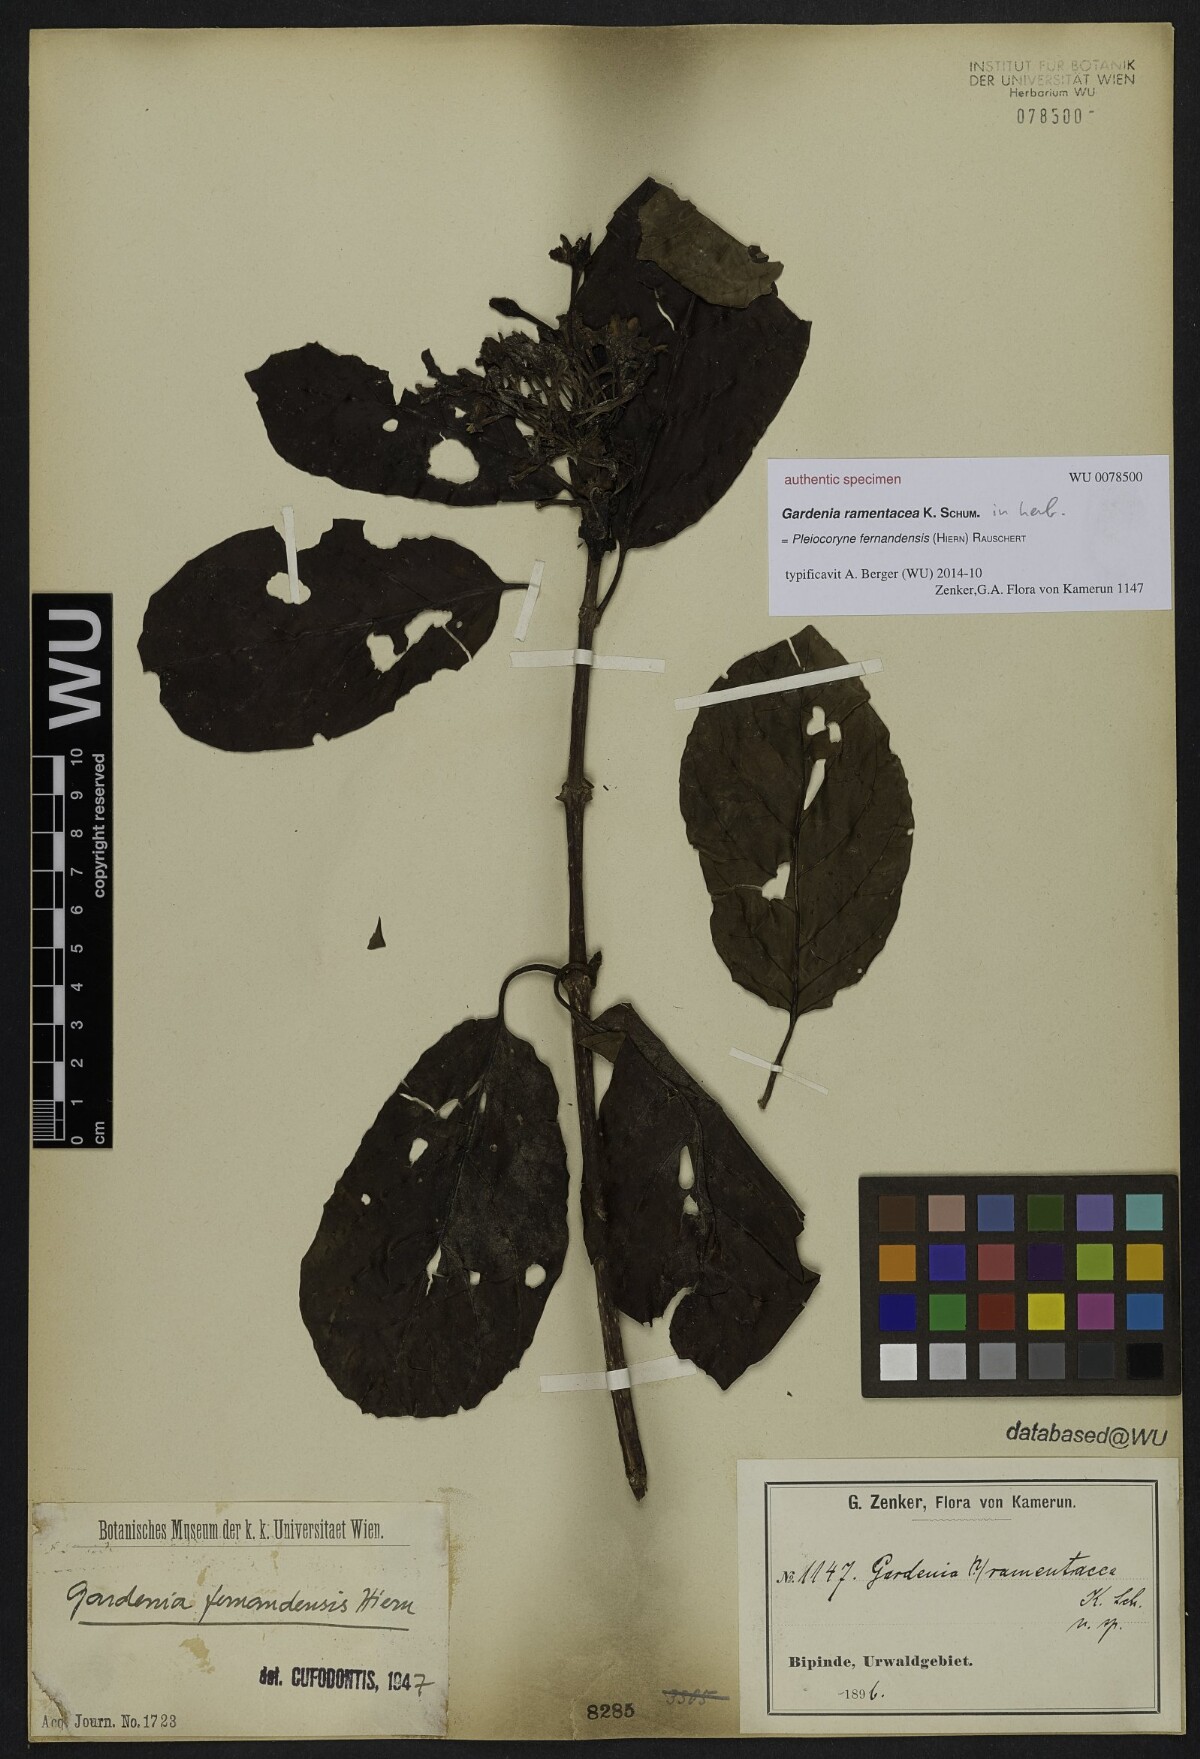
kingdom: Plantae
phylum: Tracheophyta
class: Magnoliopsida
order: Gentianales
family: Rubiaceae
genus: Gardenia
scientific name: Gardenia
